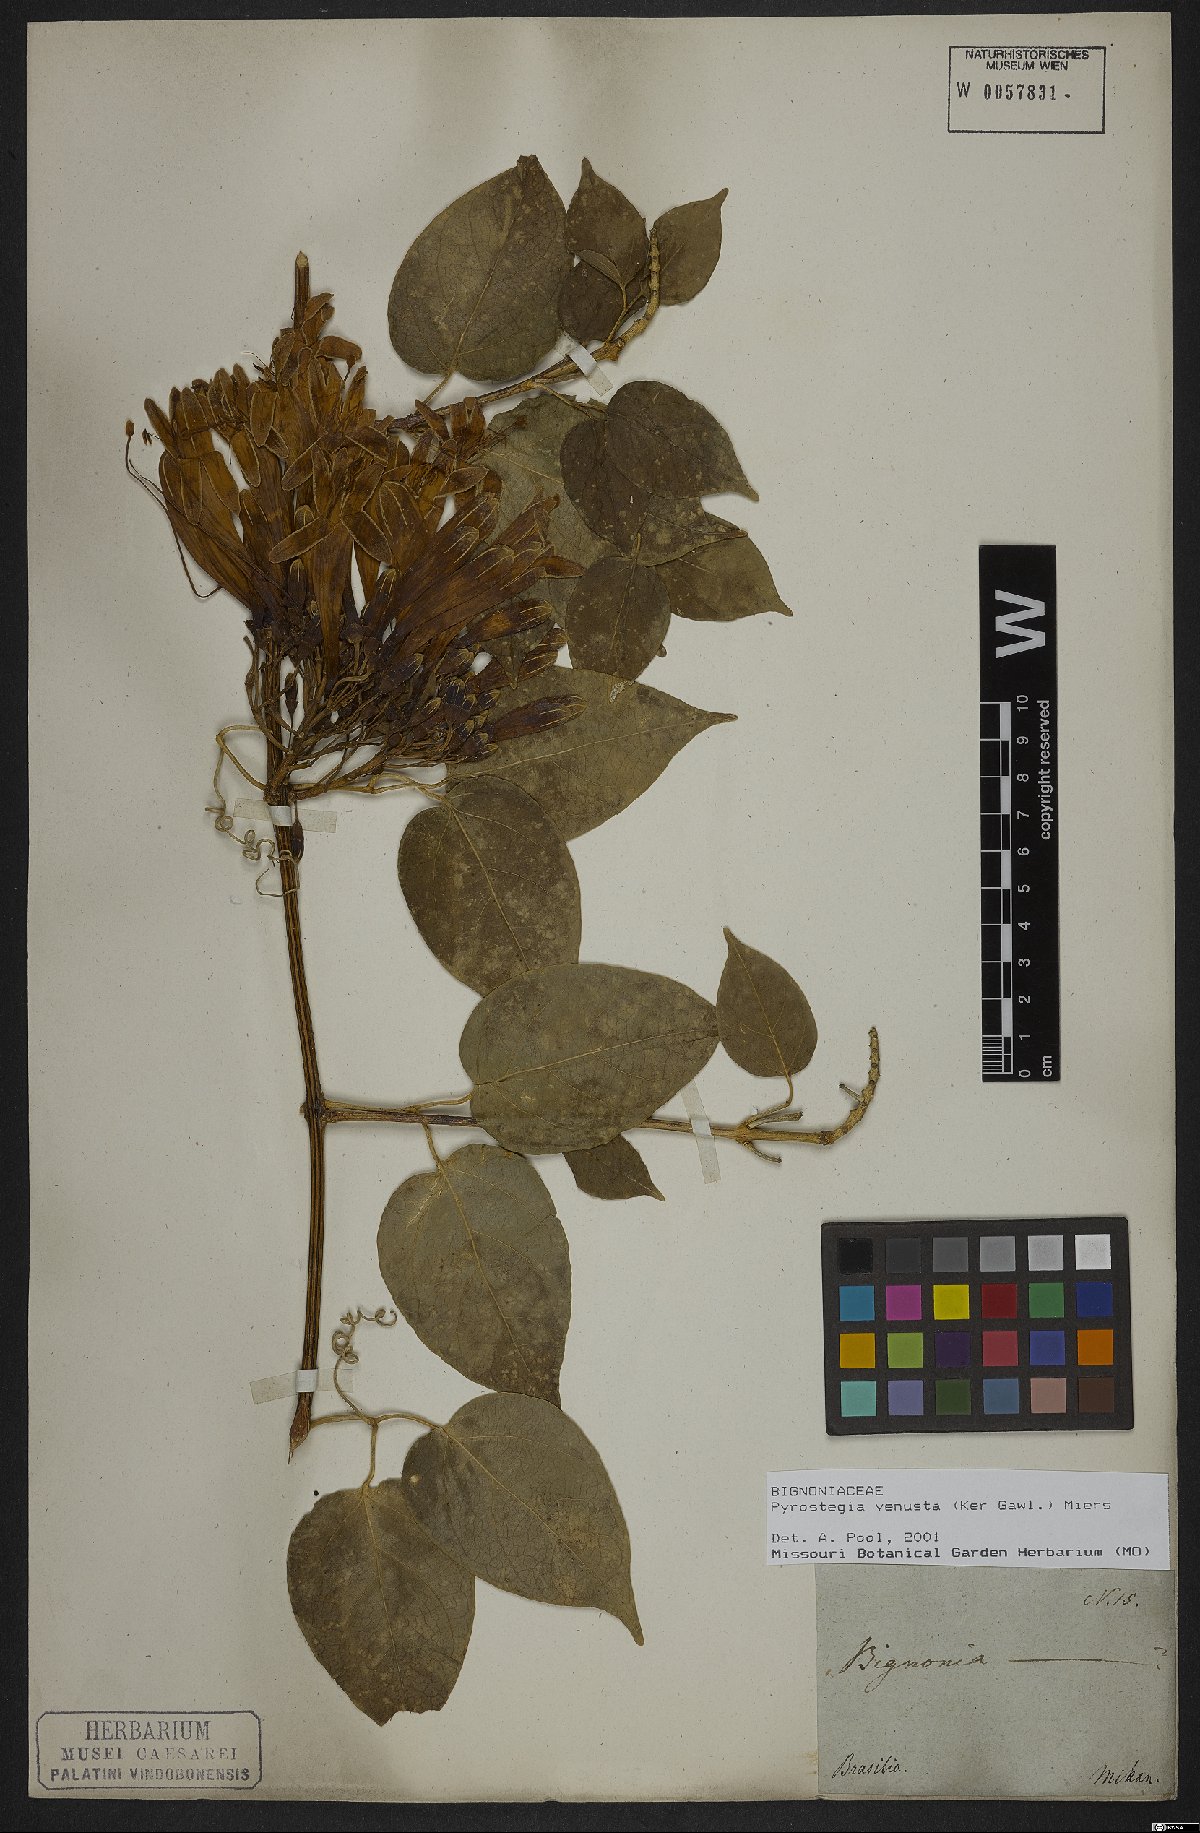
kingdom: Plantae
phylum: Tracheophyta
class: Magnoliopsida
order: Lamiales
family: Bignoniaceae
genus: Pyrostegia
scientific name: Pyrostegia venusta
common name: Flamevine
